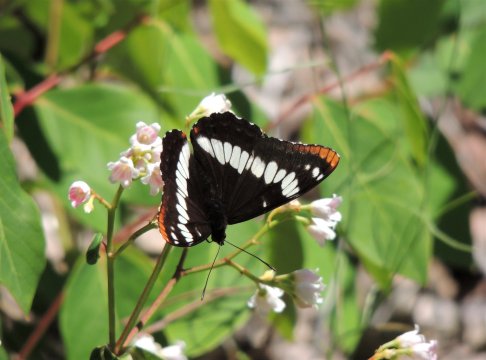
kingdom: Animalia
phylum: Arthropoda
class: Insecta
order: Lepidoptera
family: Nymphalidae
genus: Limenitis
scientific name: Limenitis lorquini
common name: Lorquin's Admiral
